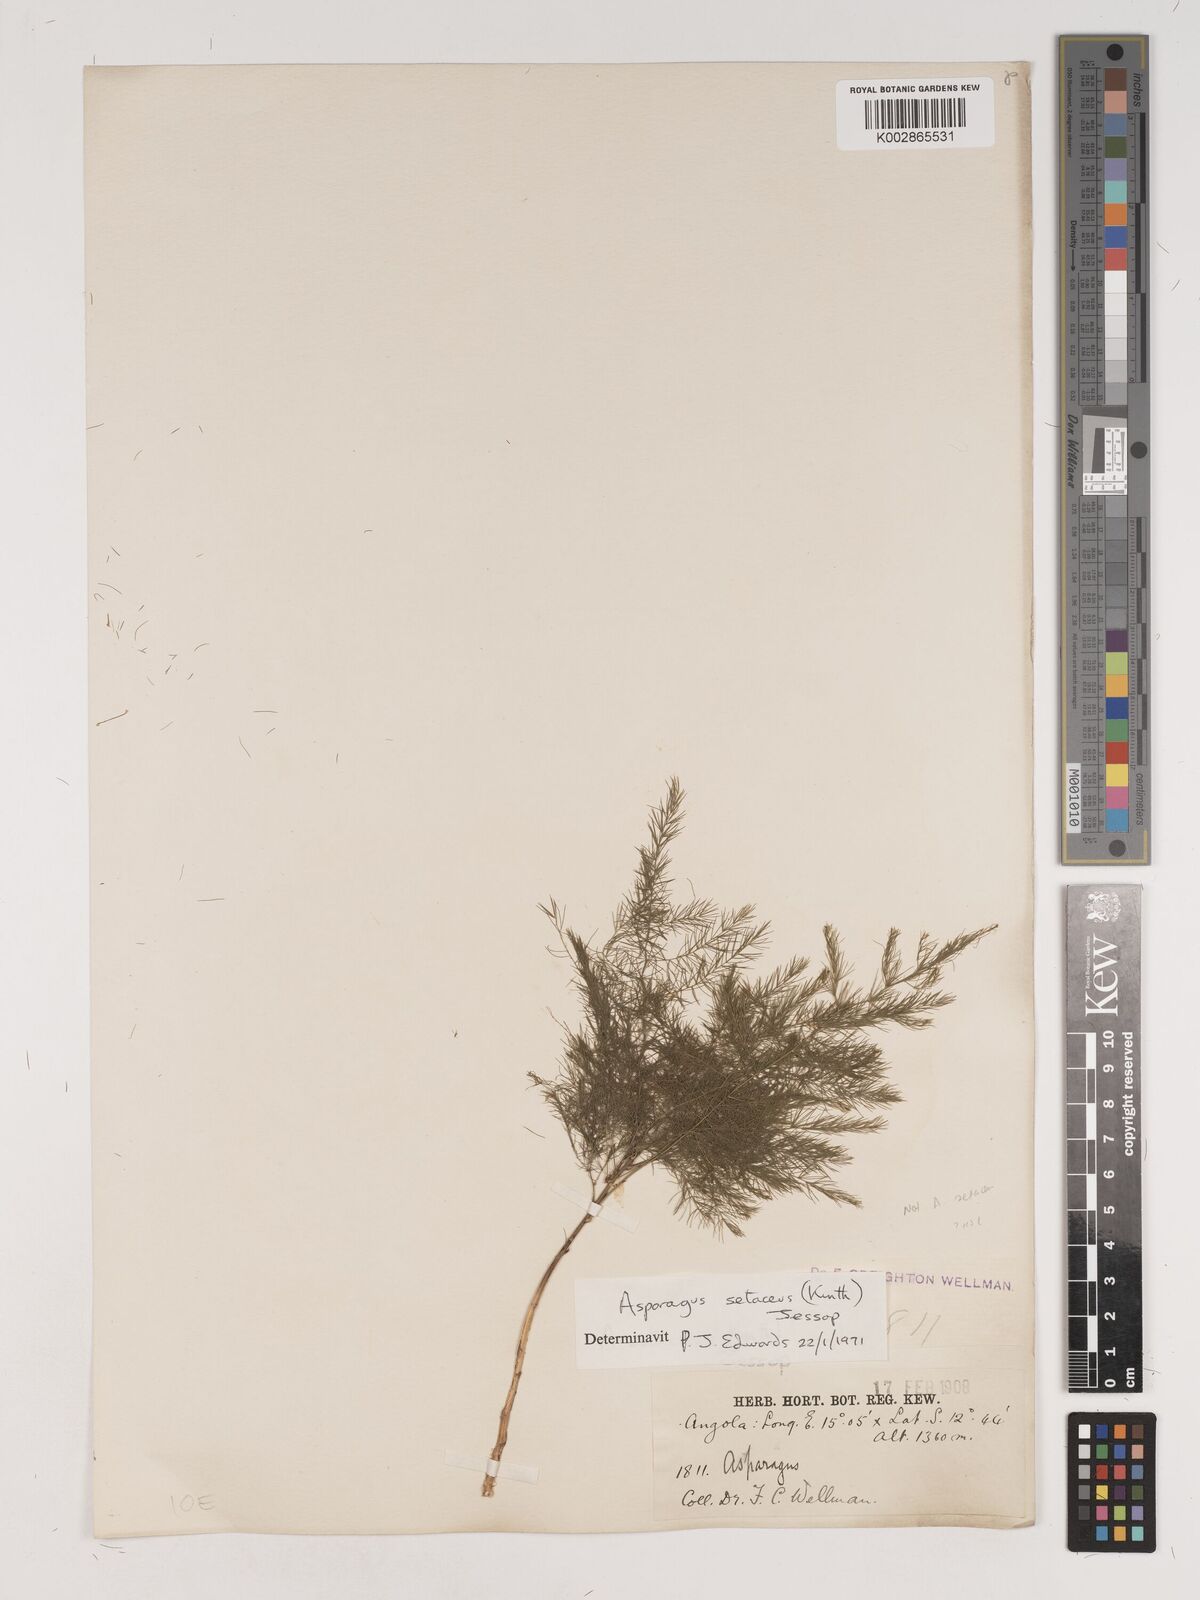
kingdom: Plantae
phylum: Tracheophyta
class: Liliopsida
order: Asparagales
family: Asparagaceae
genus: Asparagus
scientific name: Asparagus setaceus
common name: Common asparagus fern
